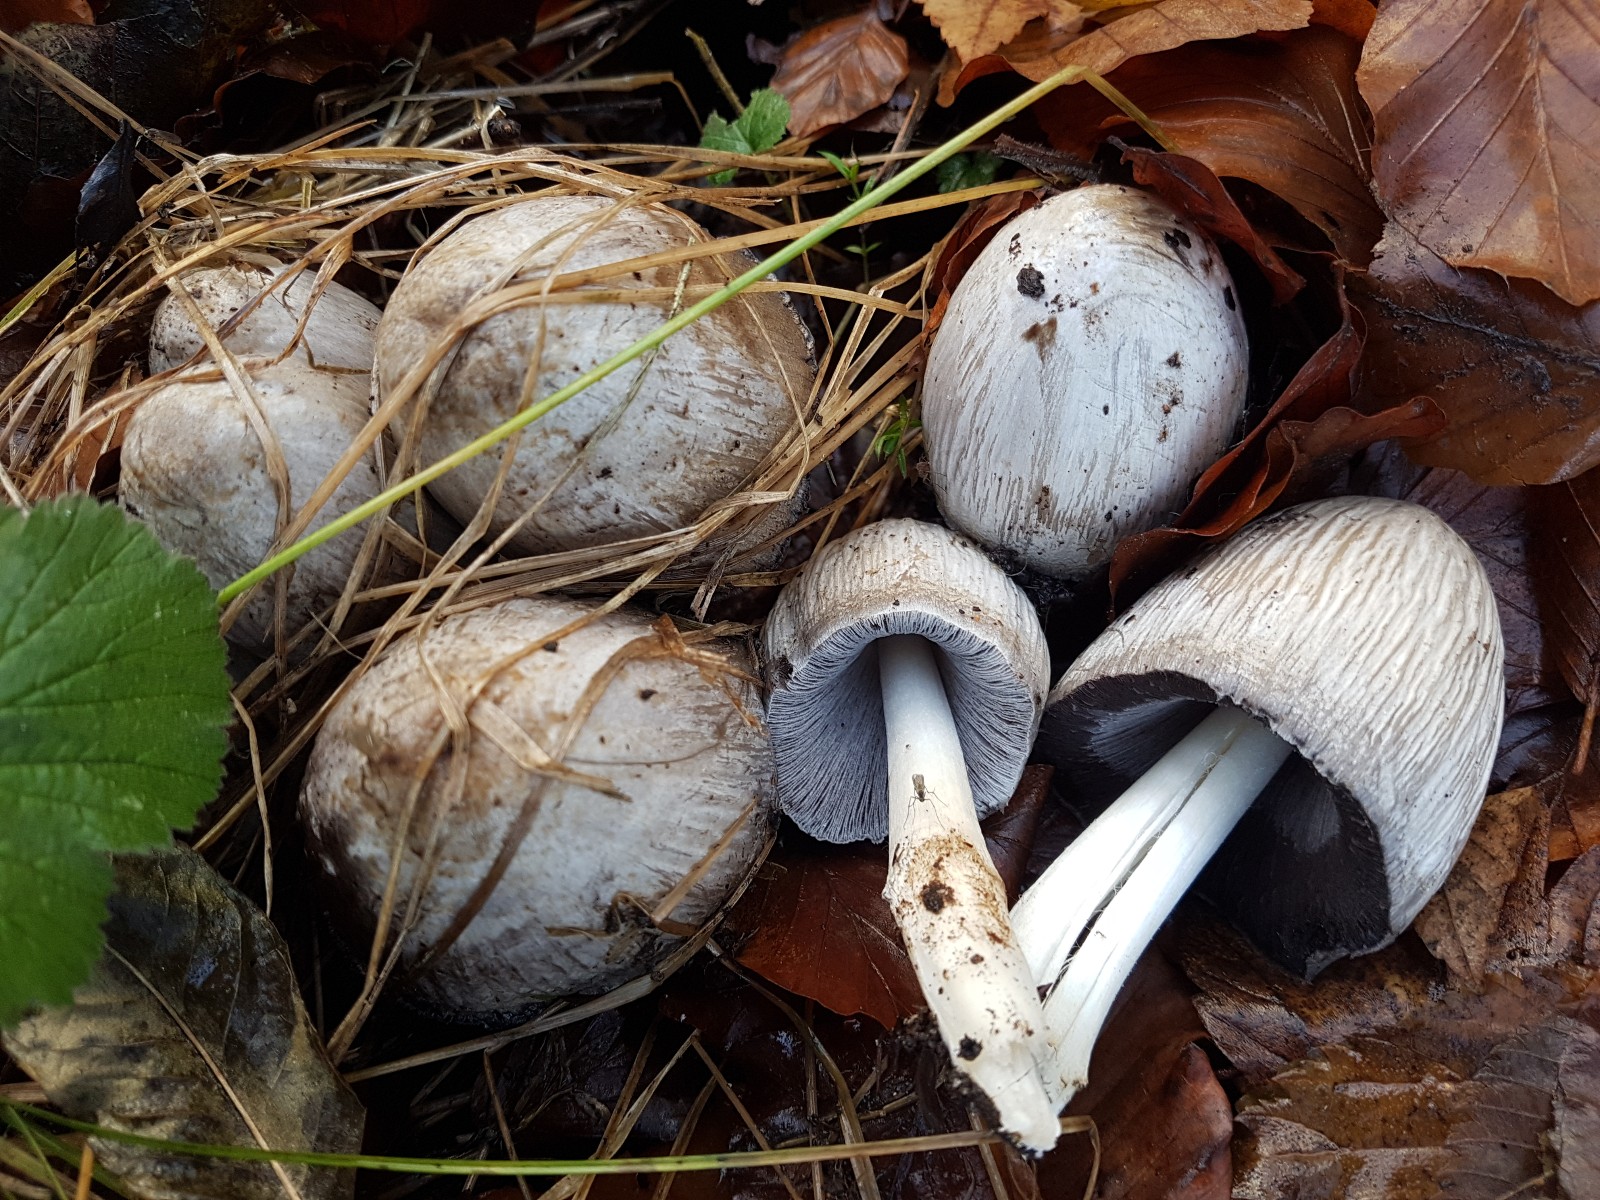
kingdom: Fungi
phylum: Basidiomycota
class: Agaricomycetes
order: Agaricales
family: Psathyrellaceae
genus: Coprinopsis
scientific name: Coprinopsis atramentaria
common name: almindelig blækhat
